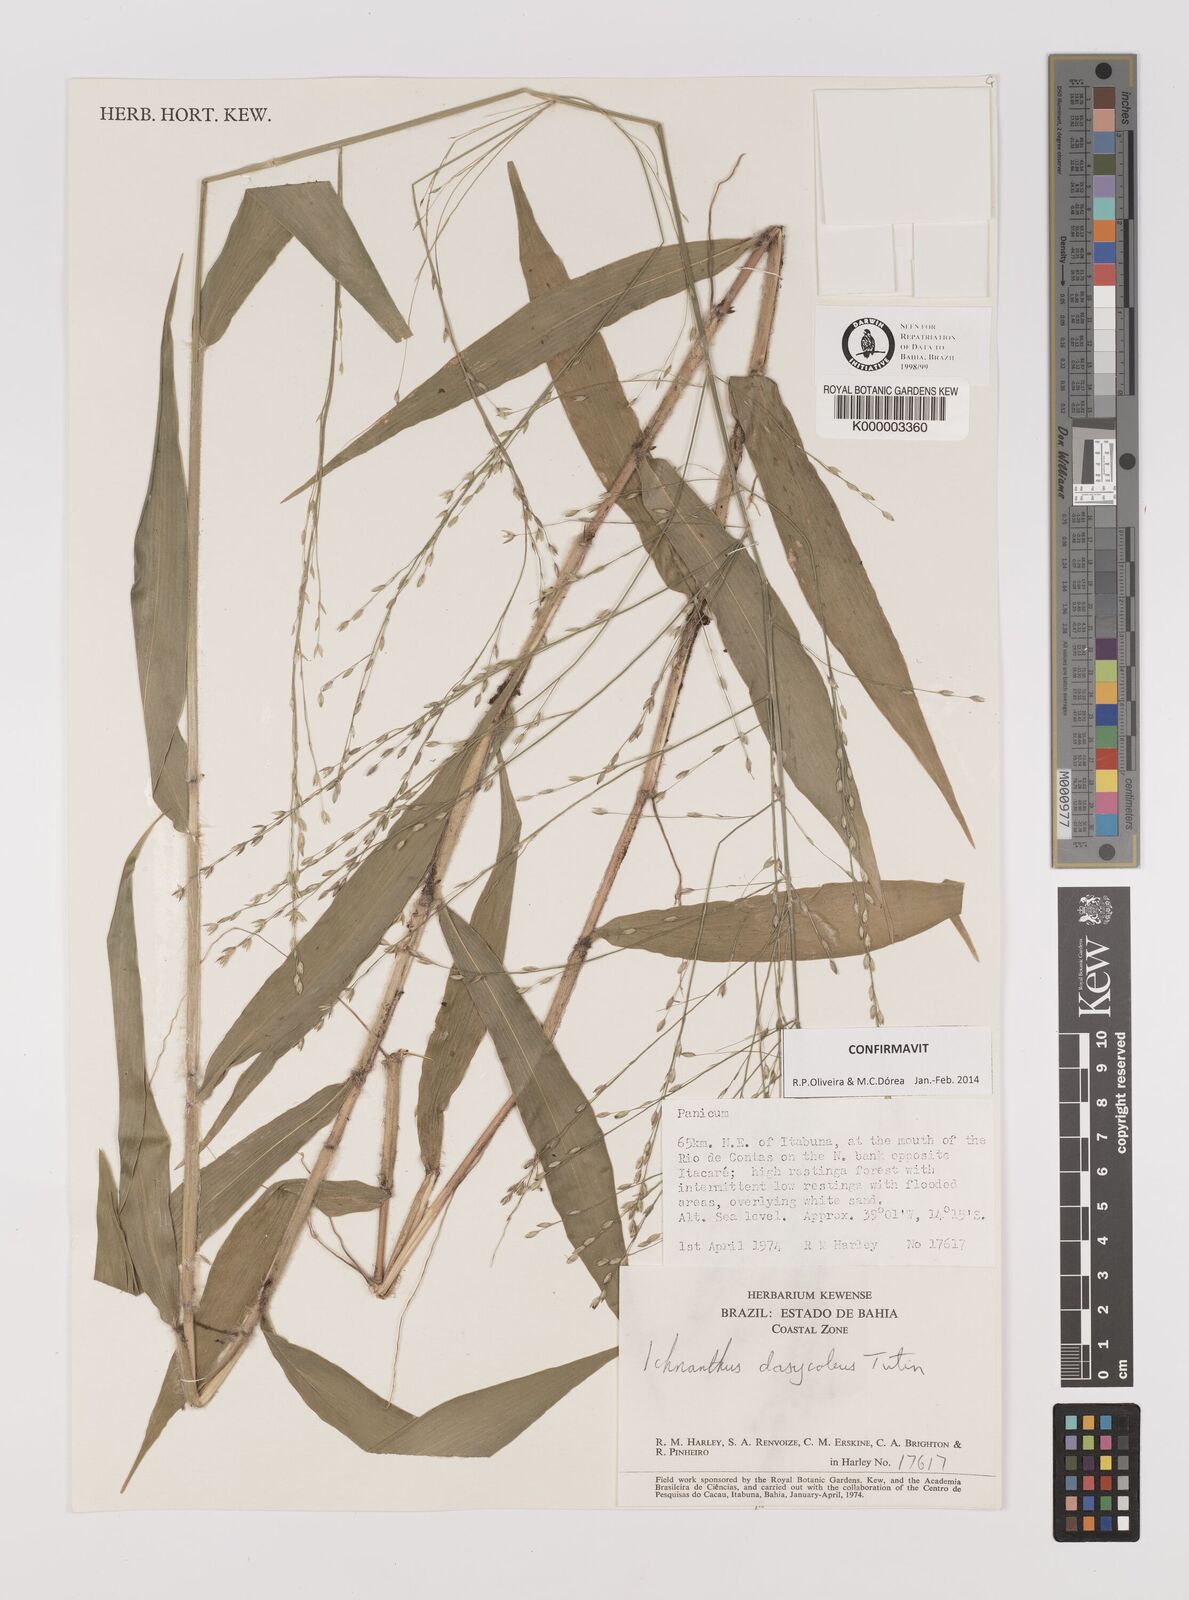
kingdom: Plantae
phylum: Tracheophyta
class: Liliopsida
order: Poales
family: Poaceae
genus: Ichnanthus
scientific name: Ichnanthus dasycoleus
